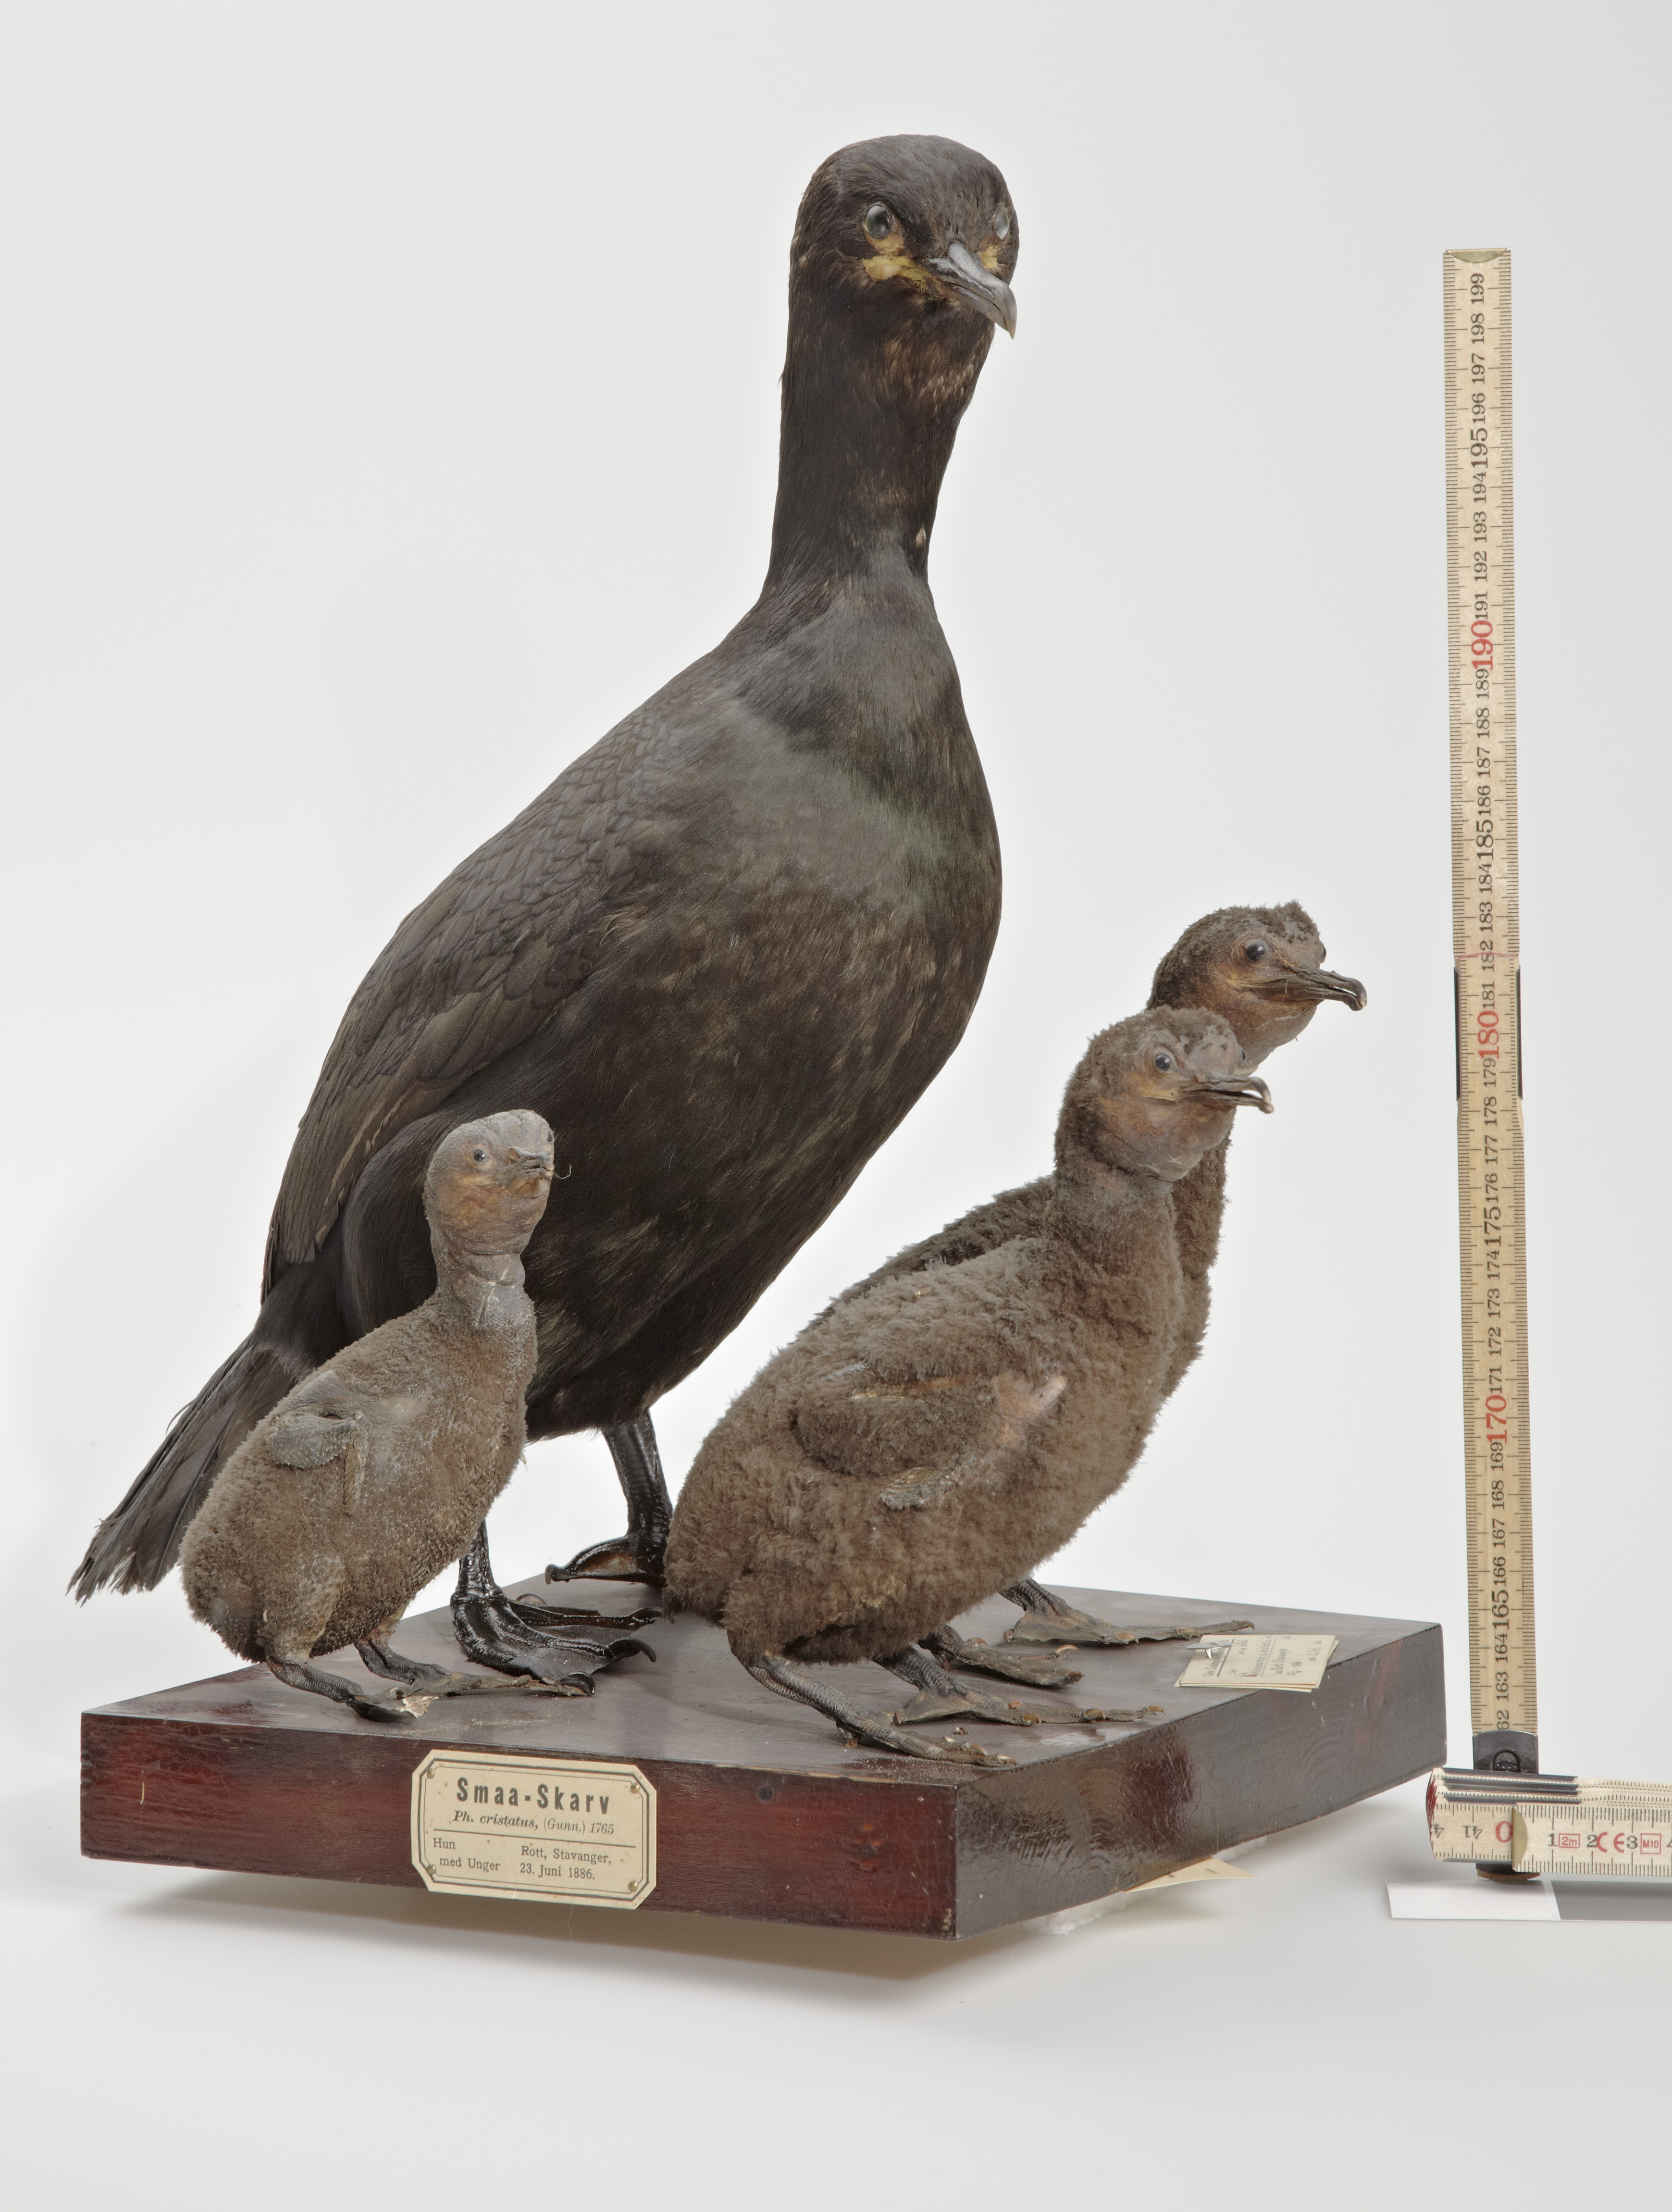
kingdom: Animalia
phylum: Chordata
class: Aves
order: Suliformes
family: Phalacrocoracidae
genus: Phalacrocorax
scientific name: Phalacrocorax aristotelis
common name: European shag
